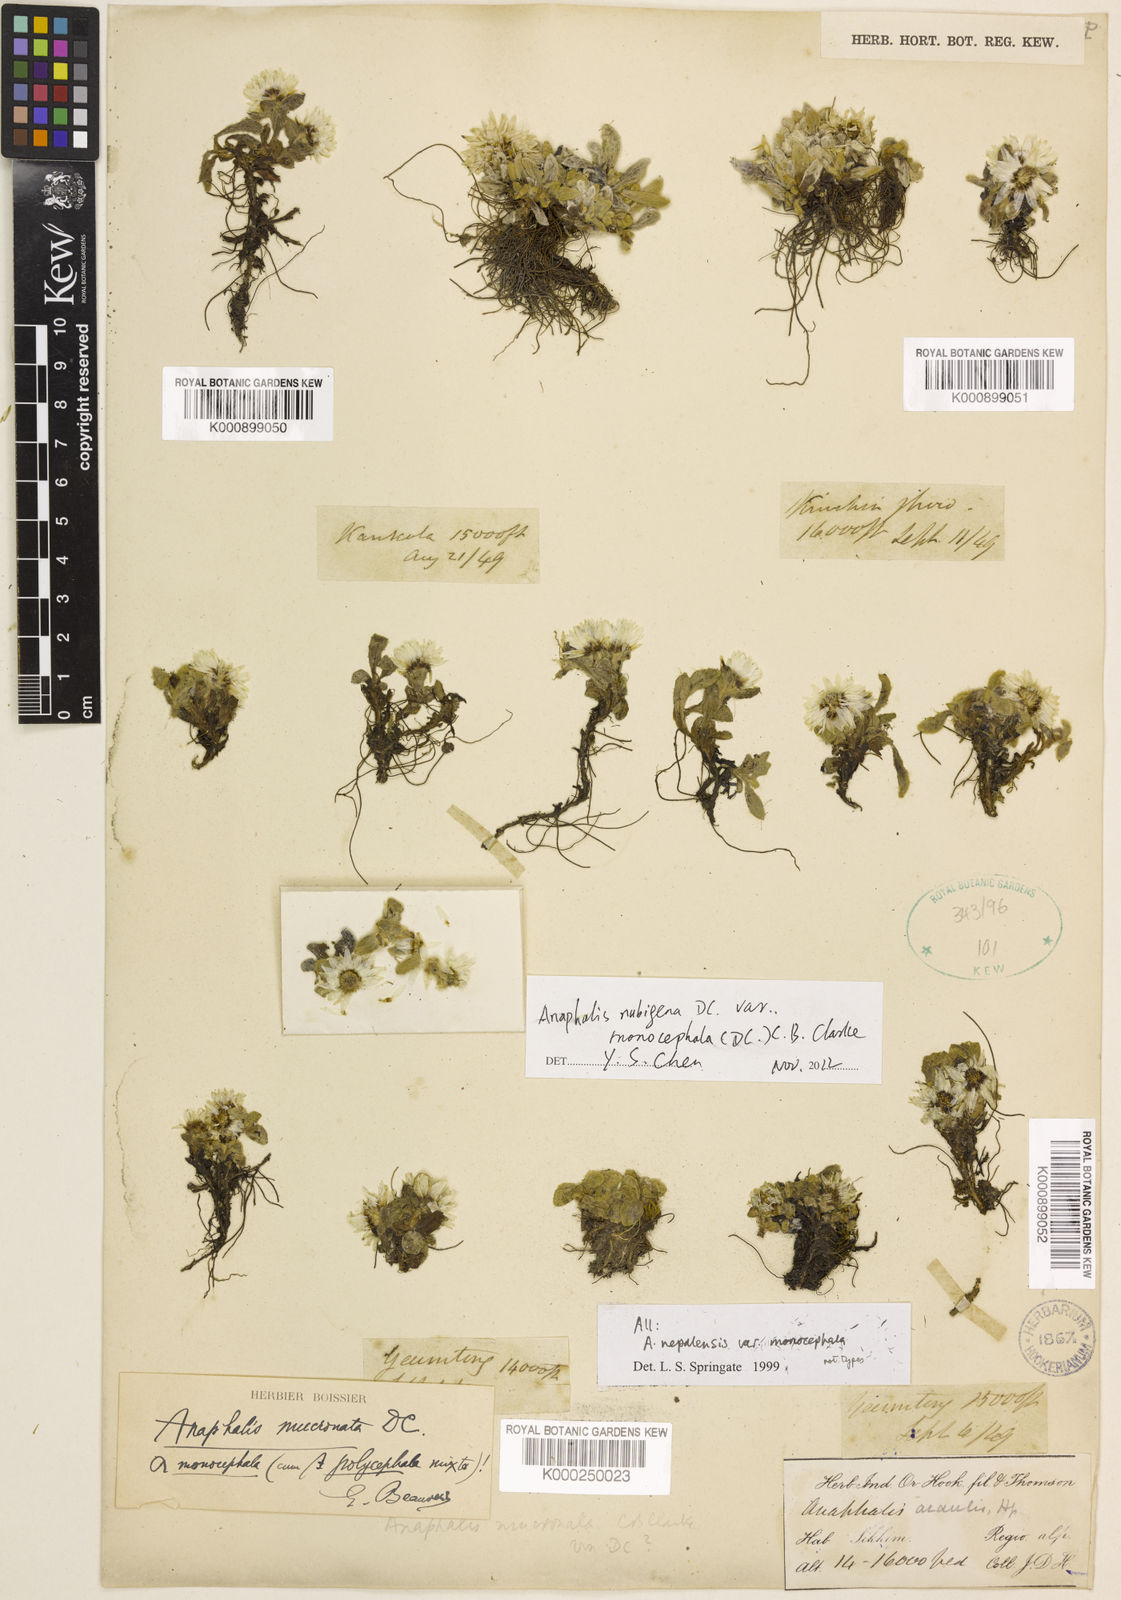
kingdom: Plantae
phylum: Tracheophyta
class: Magnoliopsida
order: Asterales
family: Asteraceae
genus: Anaphalis
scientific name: Anaphalis nepalensis
